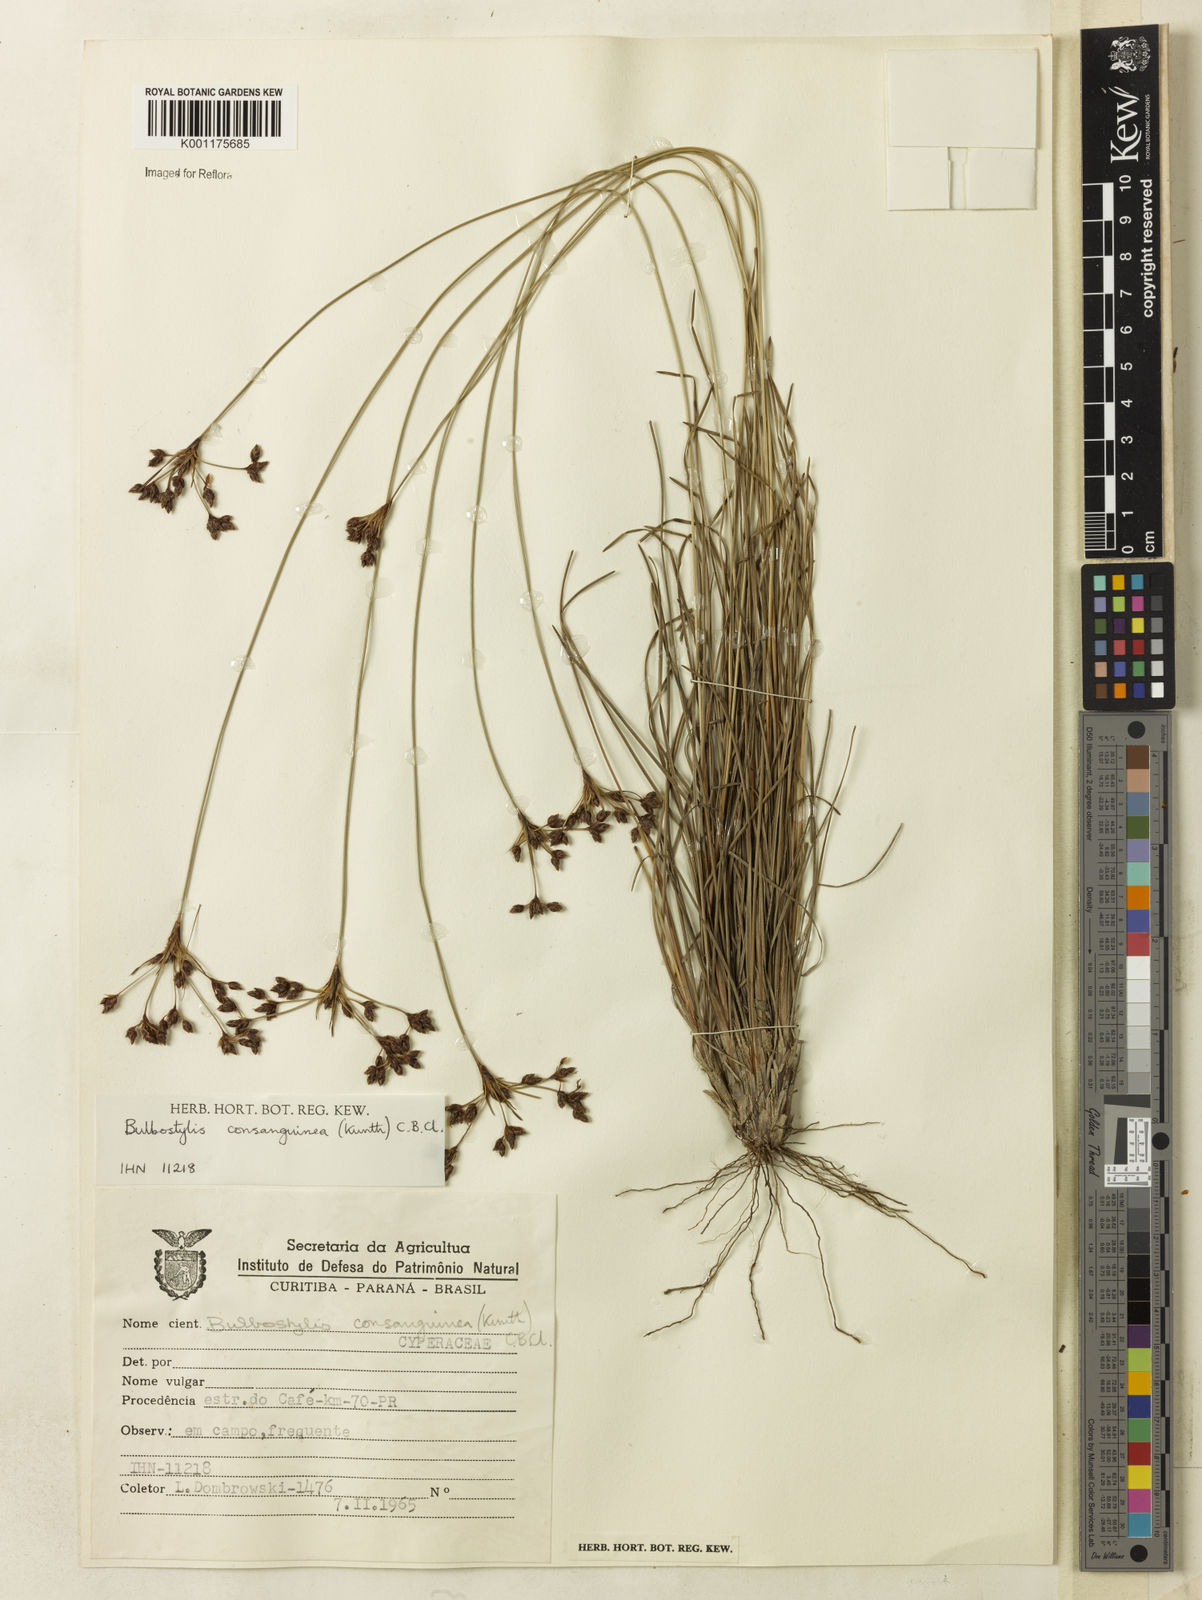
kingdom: Plantae
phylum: Tracheophyta
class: Liliopsida
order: Poales
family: Cyperaceae
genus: Bulbostylis
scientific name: Bulbostylis consanguinea
